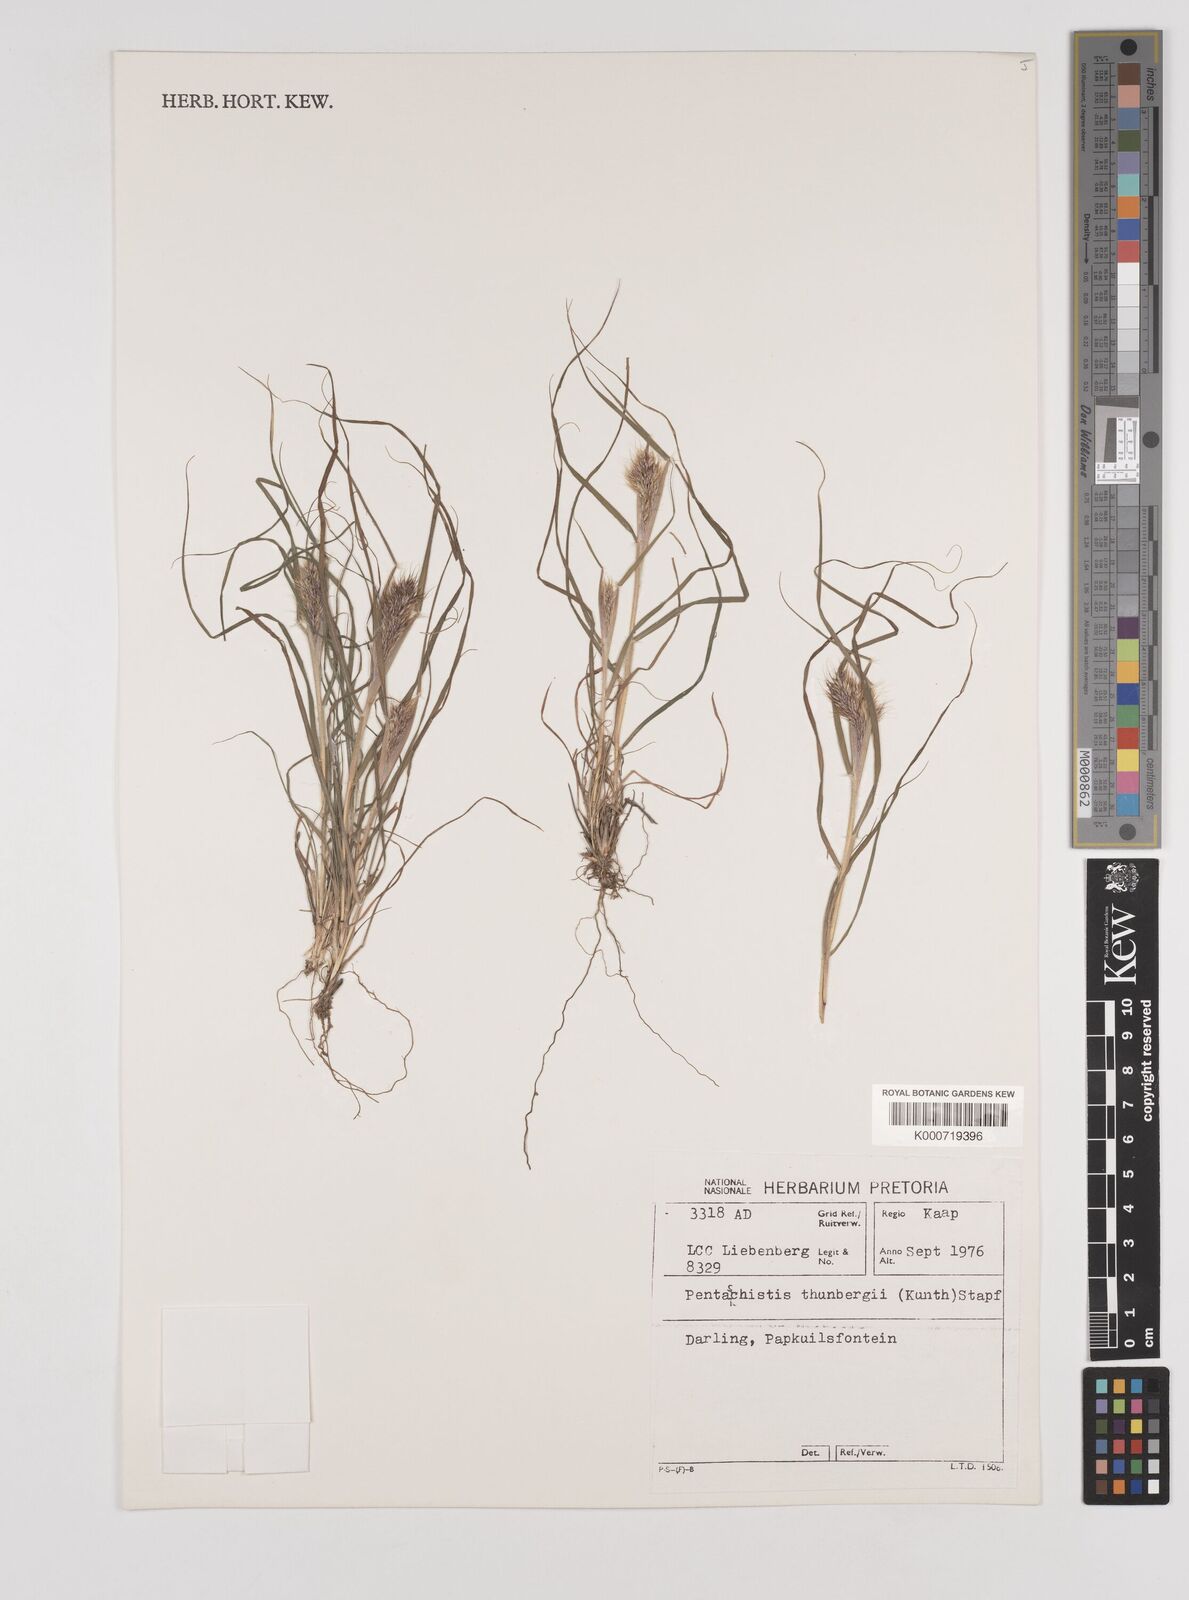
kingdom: Plantae
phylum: Tracheophyta
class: Liliopsida
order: Poales
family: Poaceae
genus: Pentameris
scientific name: Pentameris triseta
